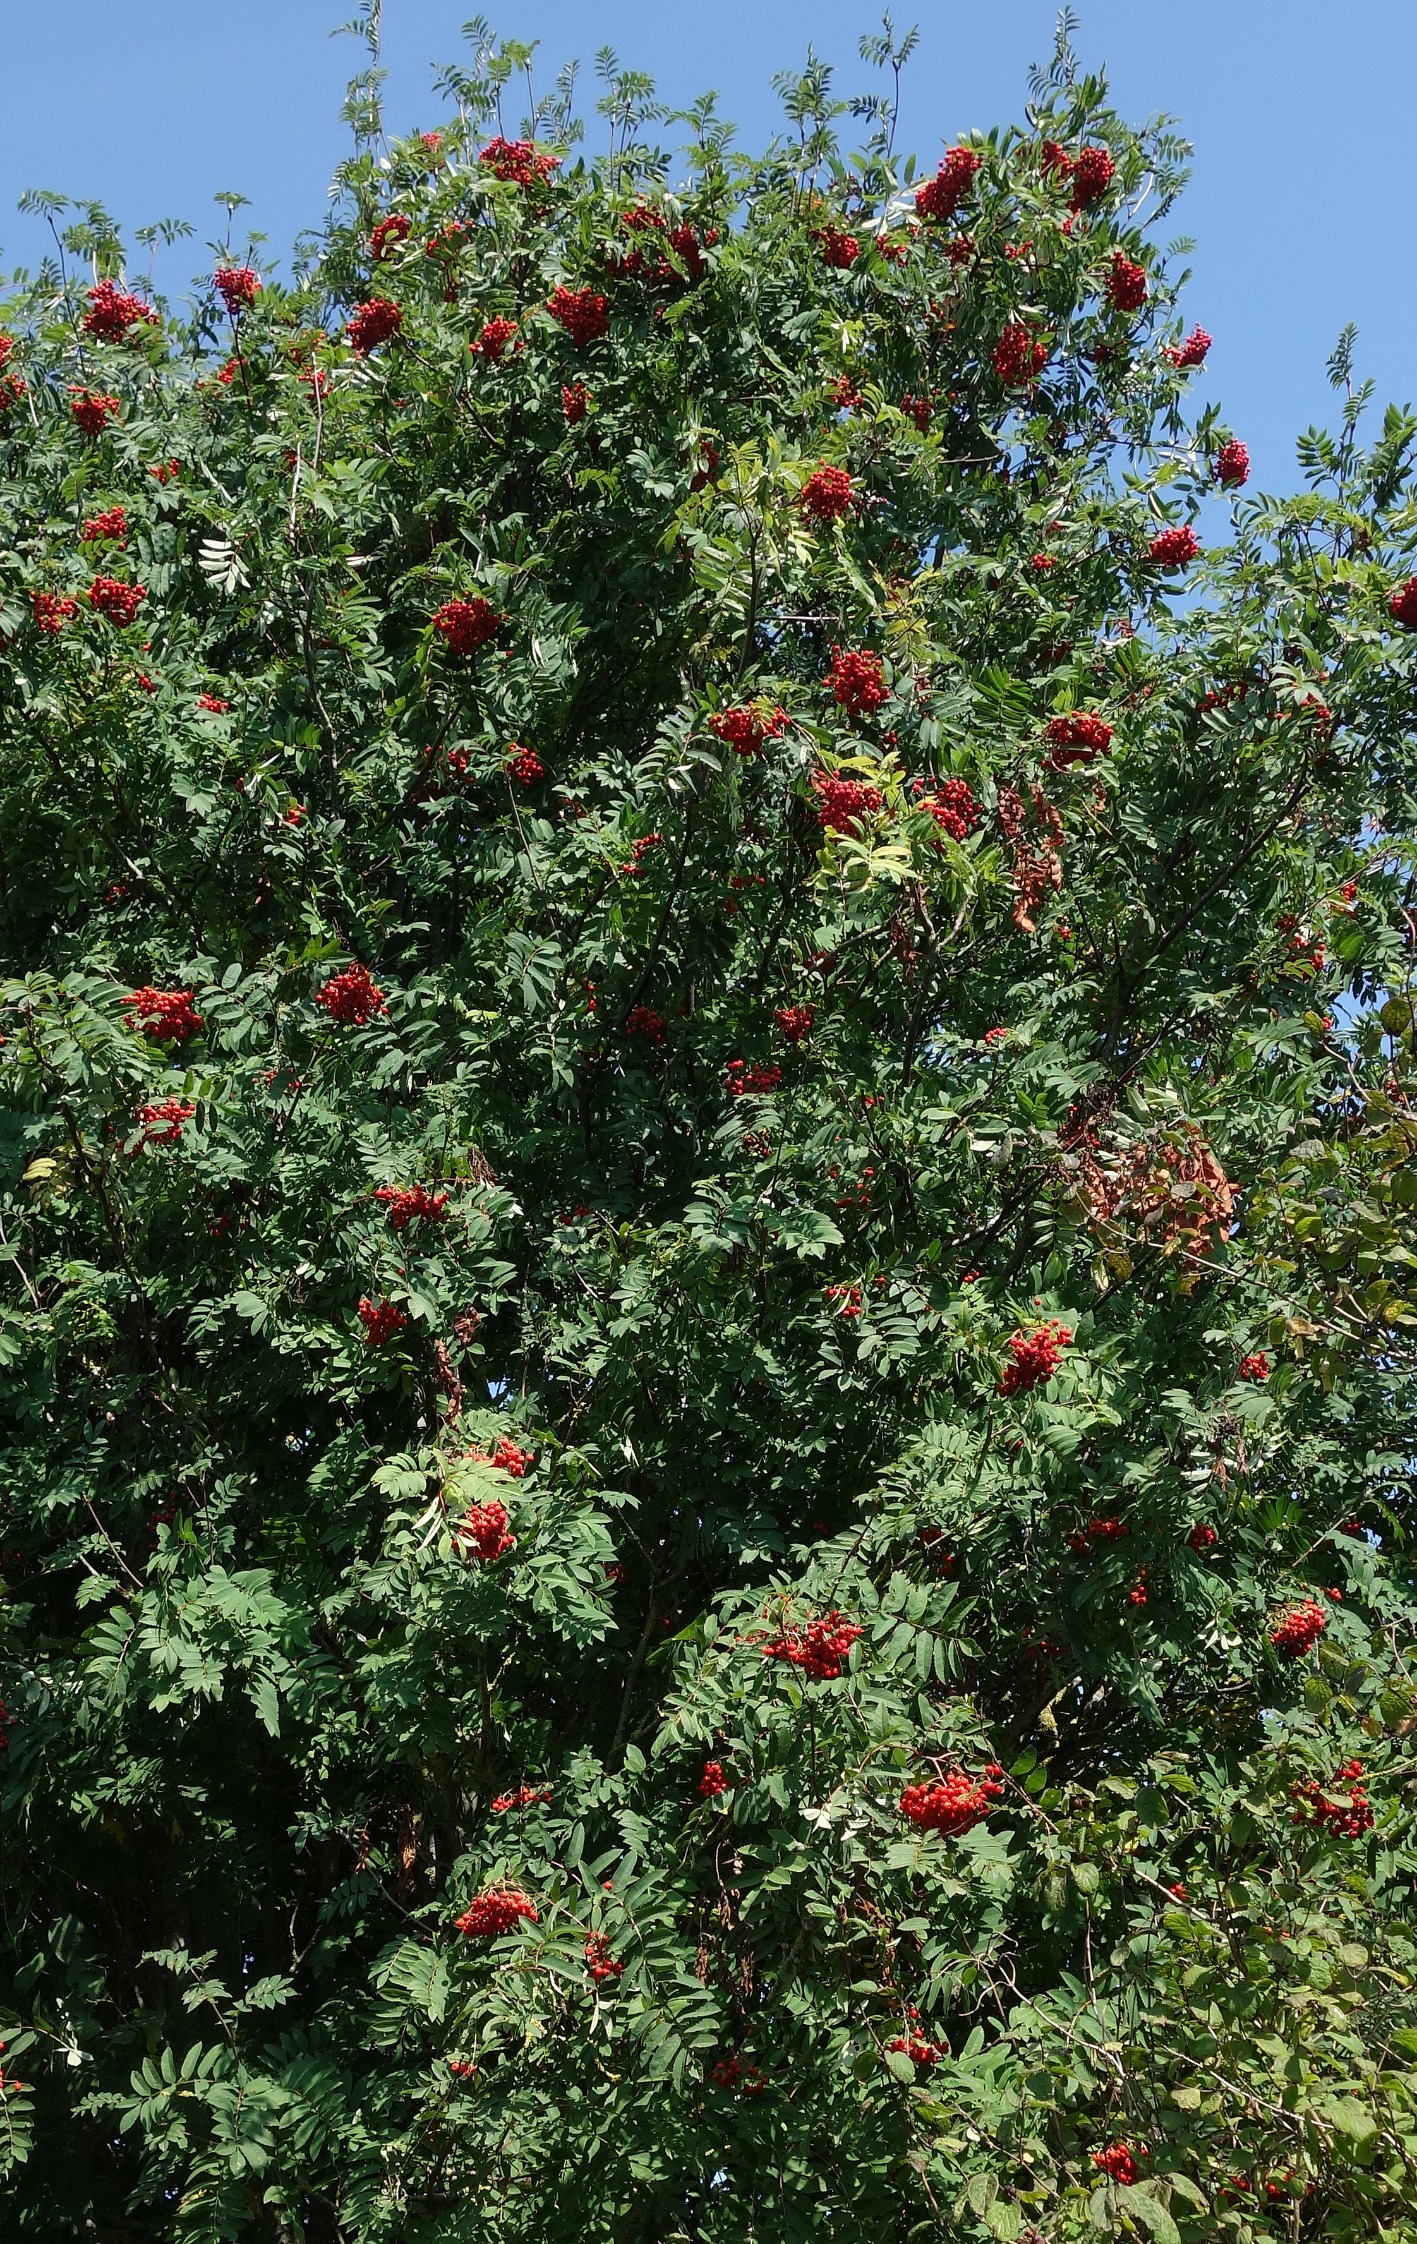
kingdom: Plantae
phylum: Tracheophyta
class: Magnoliopsida
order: Rosales
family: Rosaceae
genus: Sorbus
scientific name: Sorbus aucuparia
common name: Almindelig røn
